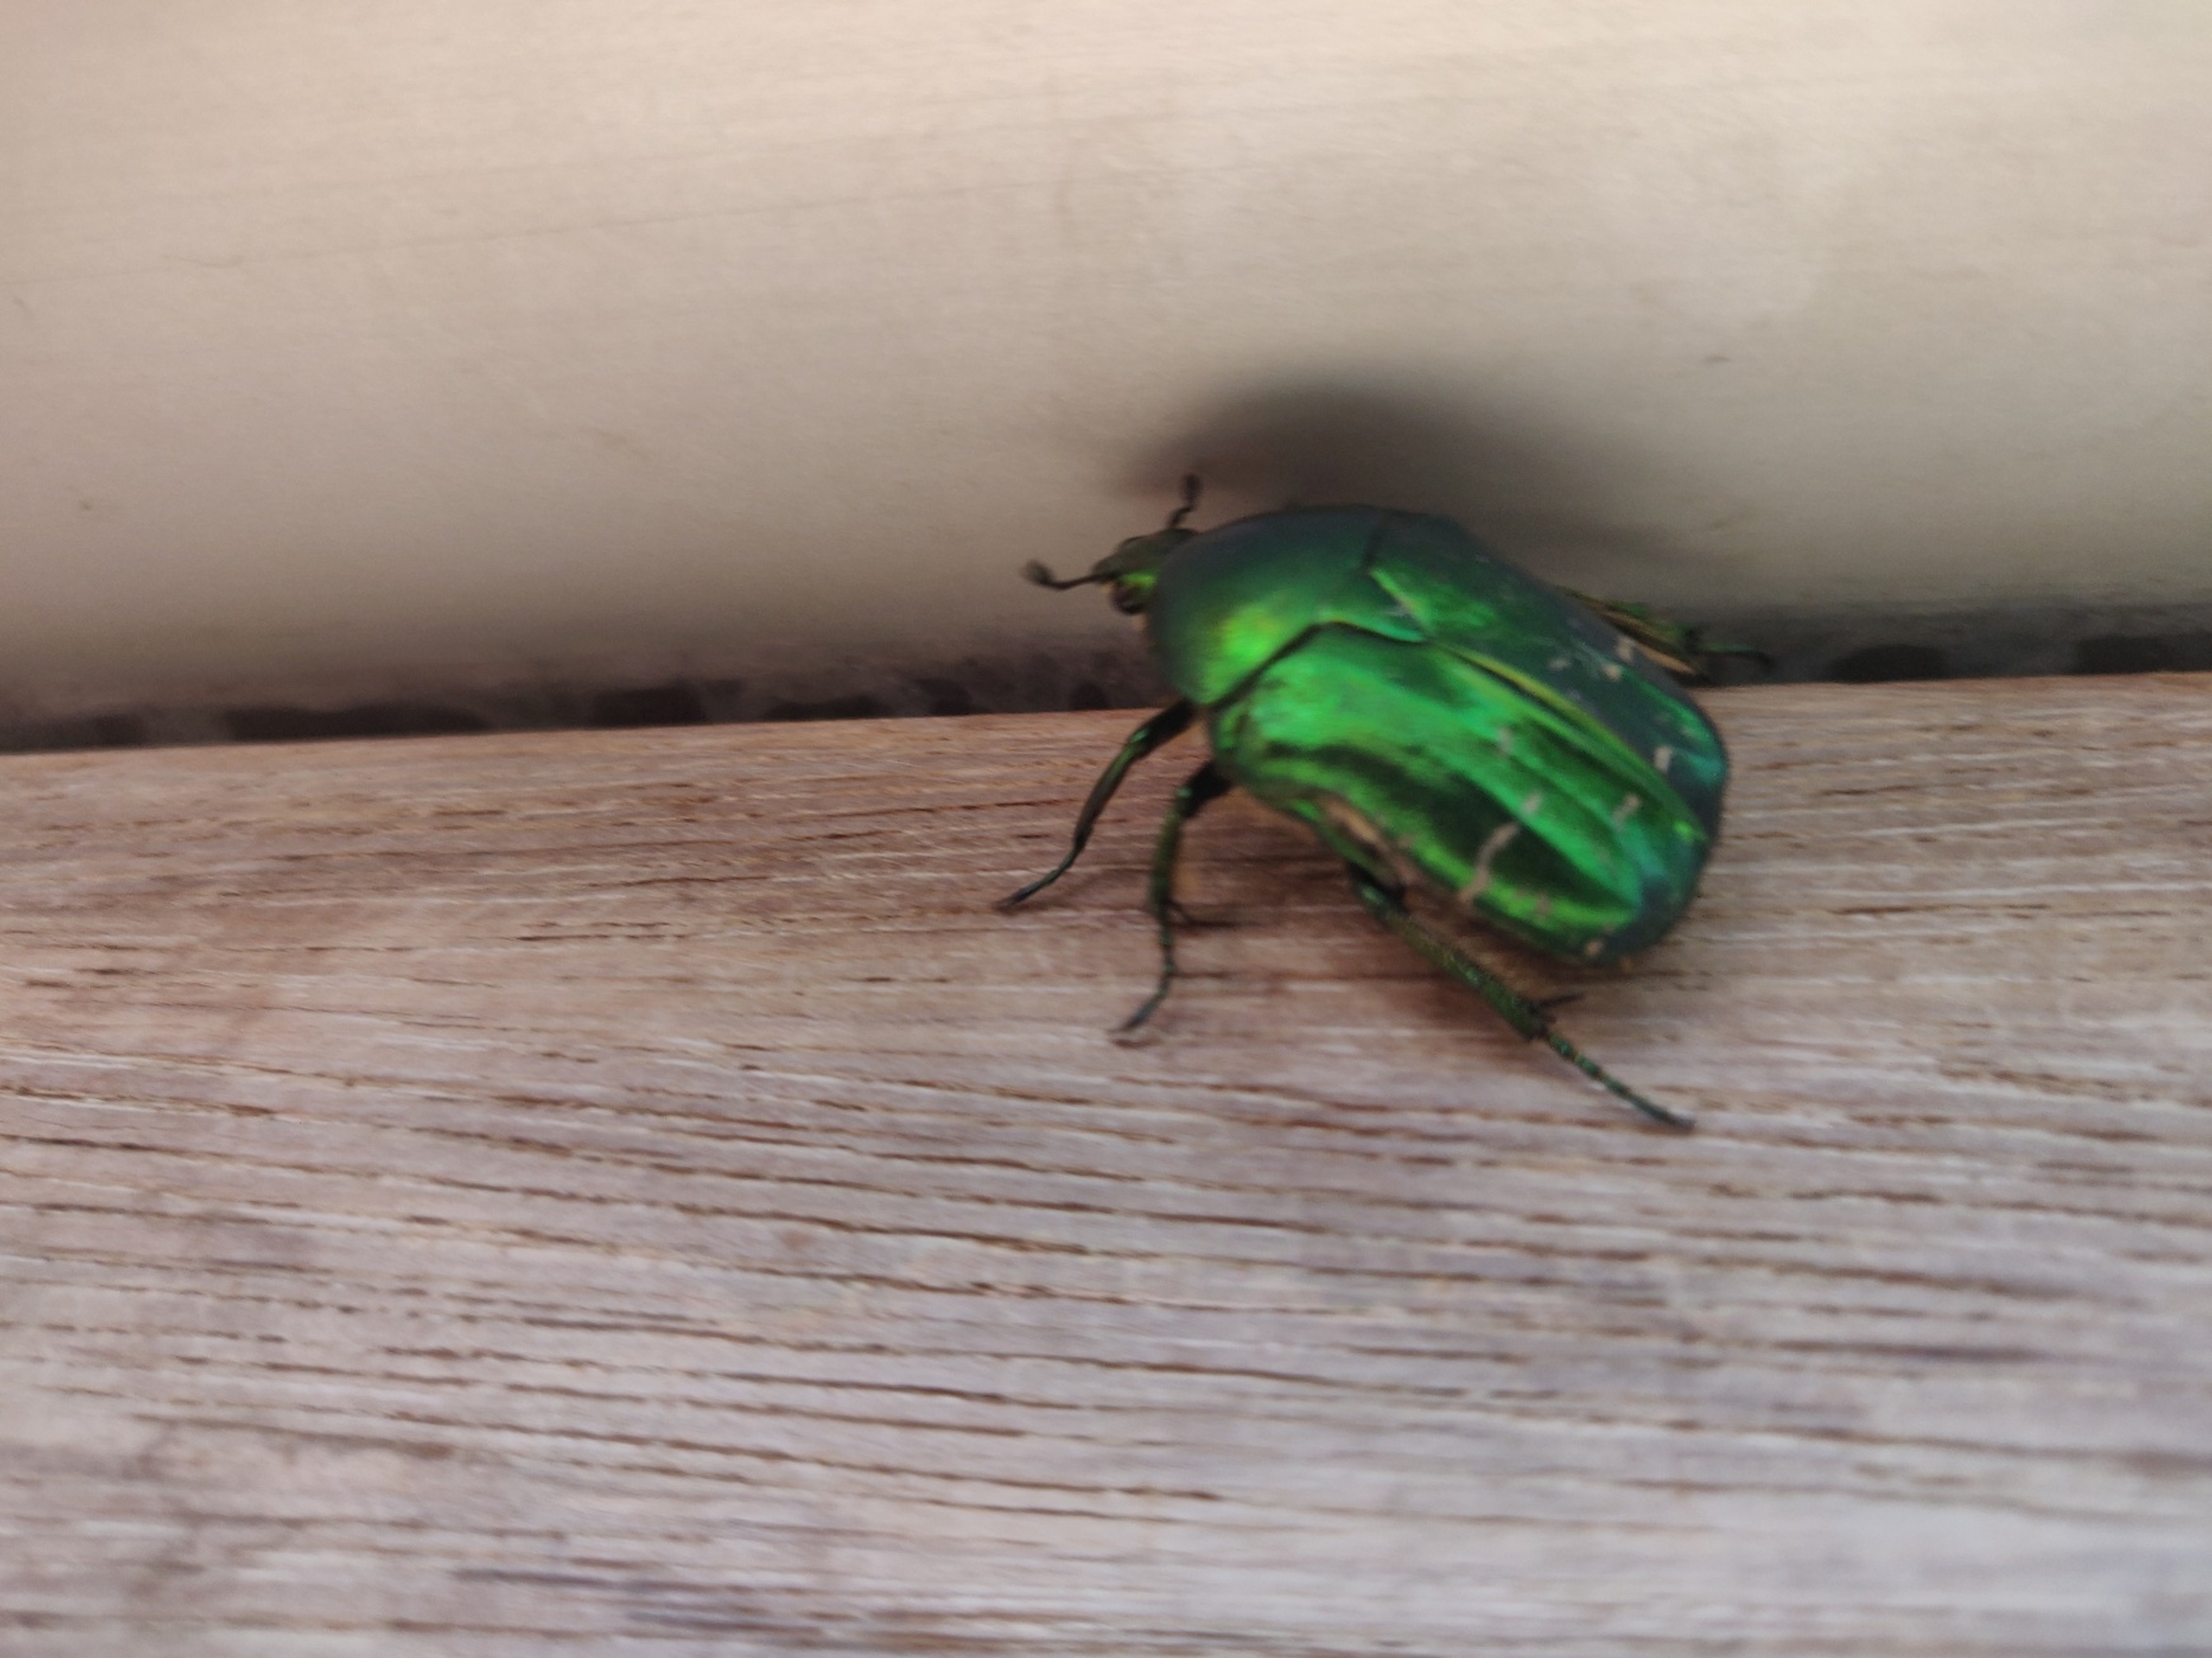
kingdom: Animalia
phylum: Arthropoda
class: Insecta
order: Coleoptera
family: Scarabaeidae
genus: Cetonia
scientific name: Cetonia aurata
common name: Grøn guldbasse
